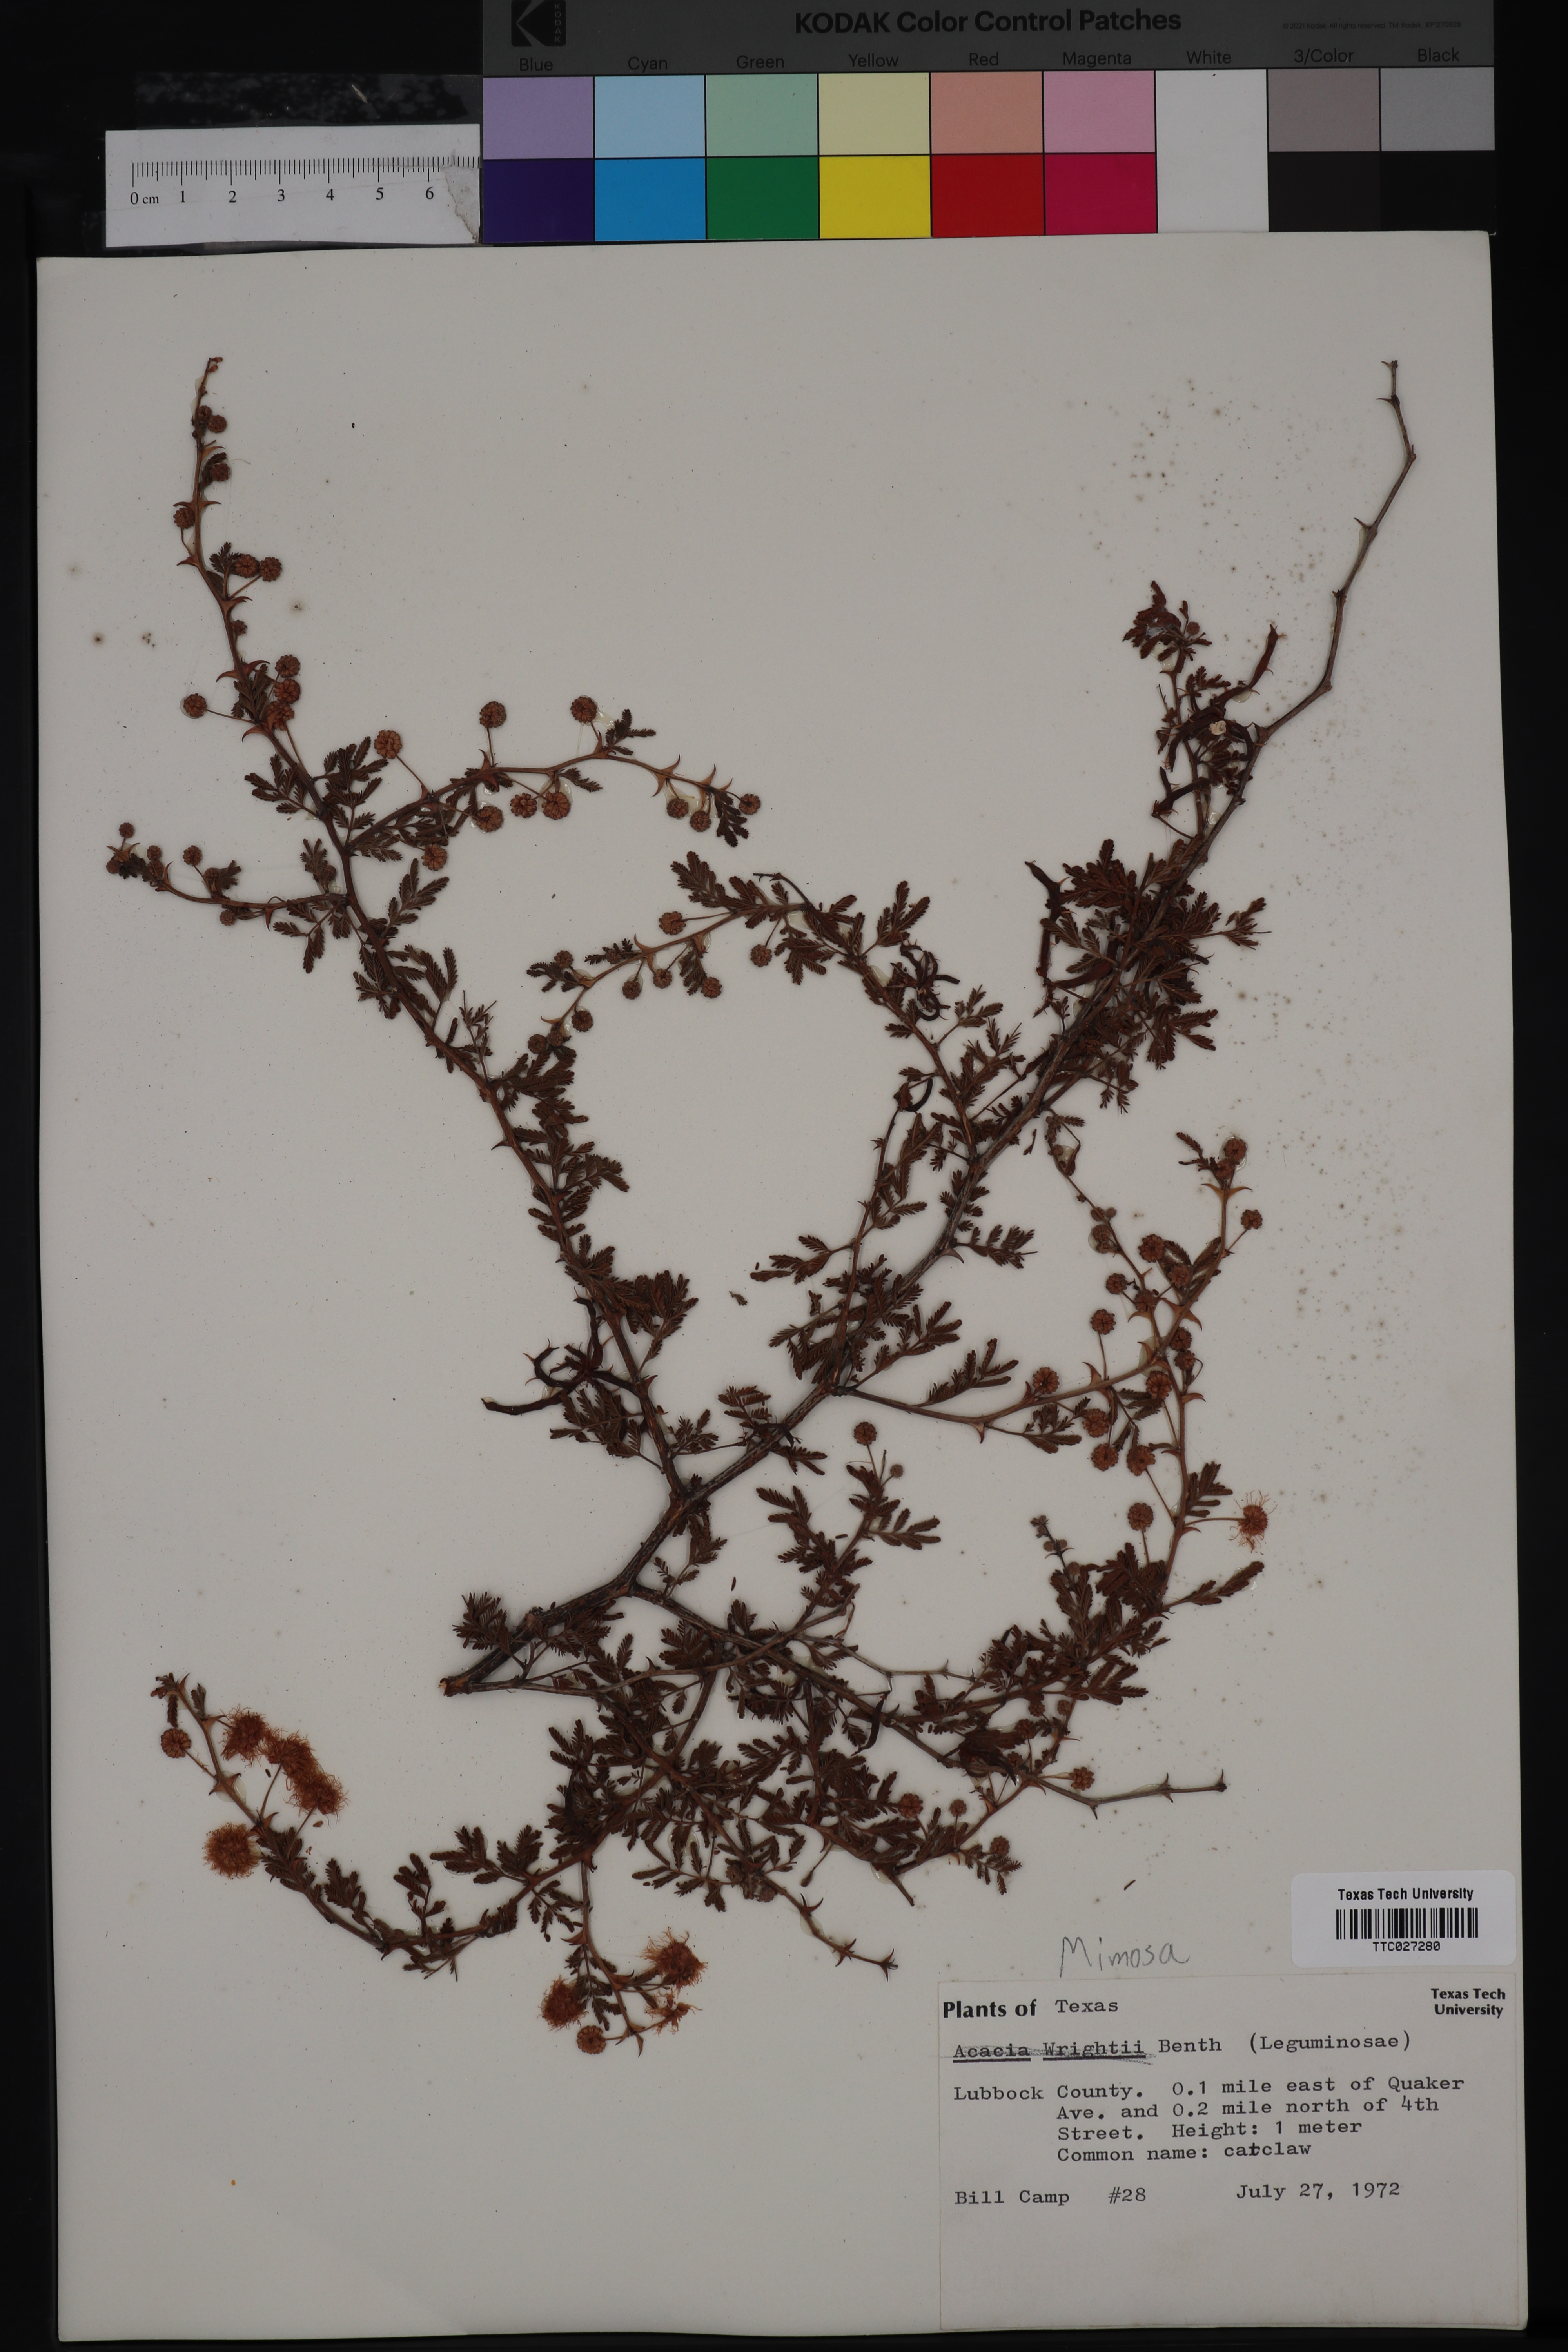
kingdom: Plantae
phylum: Tracheophyta
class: Magnoliopsida
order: Fabales
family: Fabaceae
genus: Senegalia
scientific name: Senegalia wrightii
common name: Texas cat's-claw
